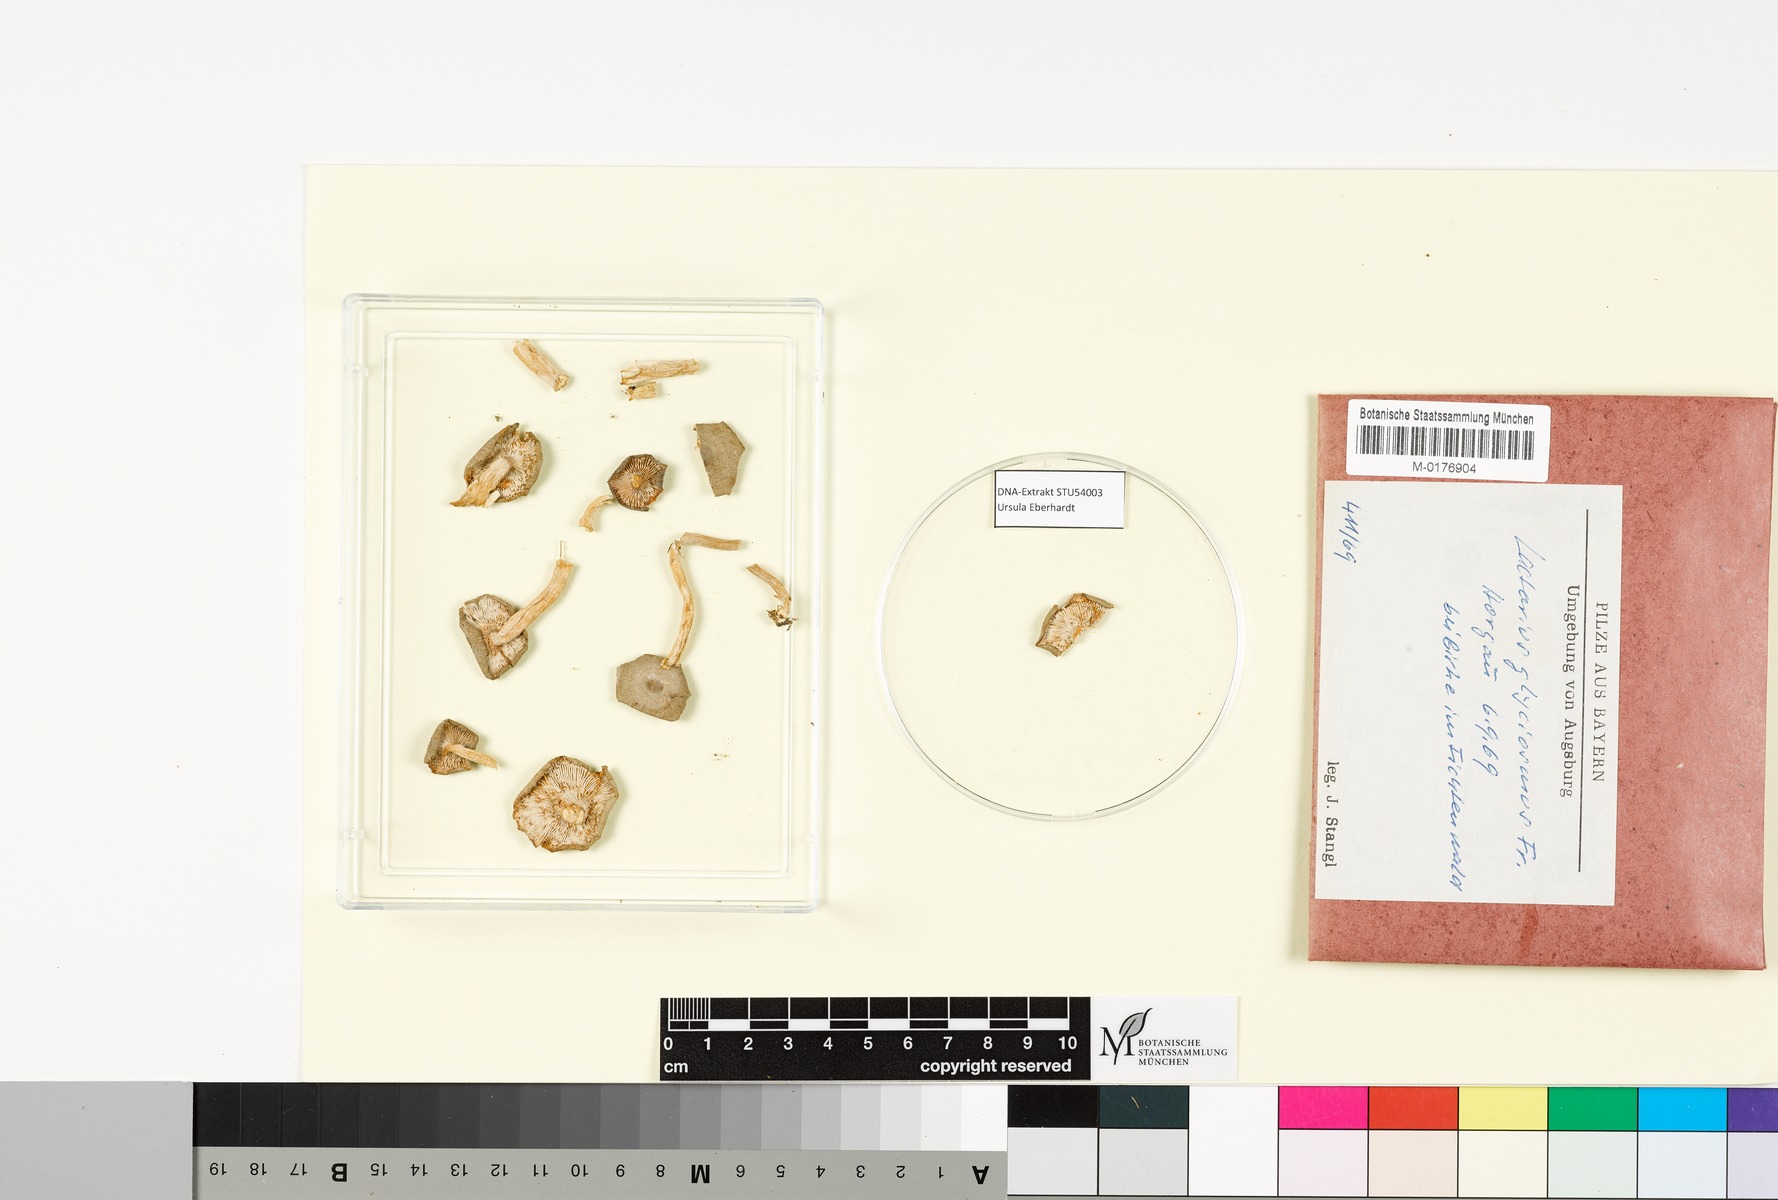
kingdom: Fungi
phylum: Basidiomycota
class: Agaricomycetes
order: Russulales
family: Russulaceae
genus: Lactarius
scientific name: Lactarius glyciosmus
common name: Coconut milkcap
